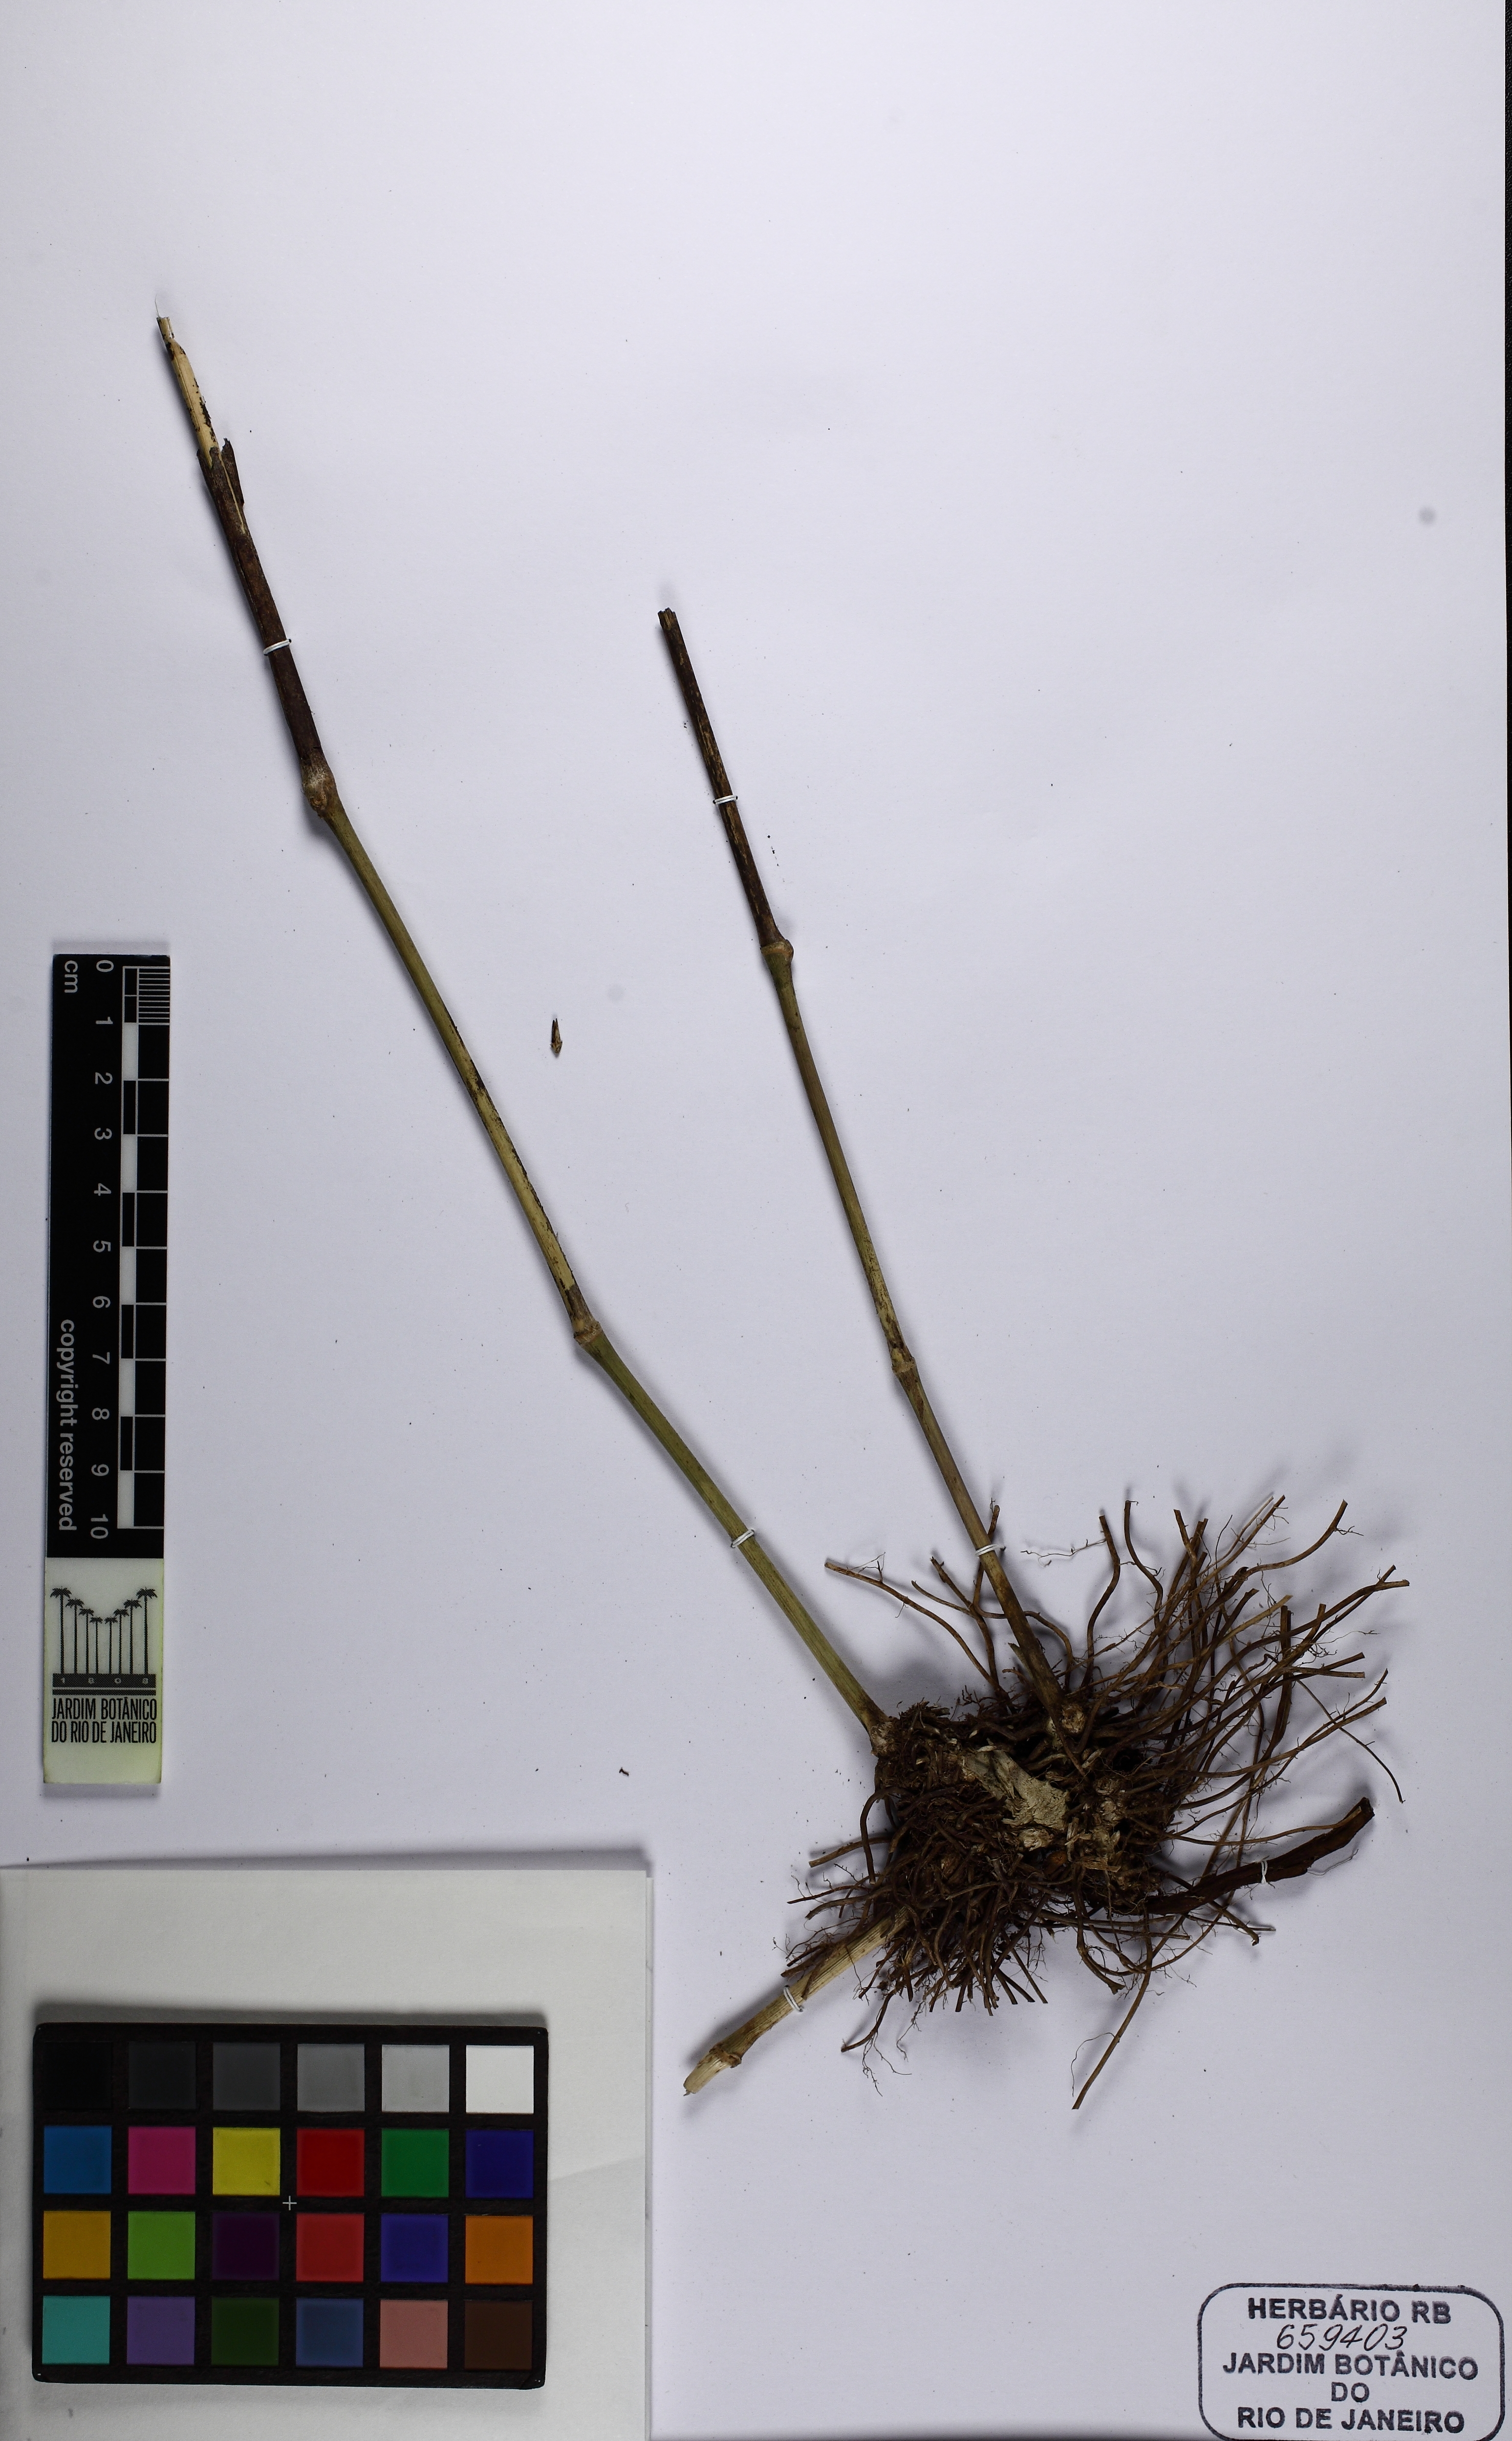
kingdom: Plantae
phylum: Tracheophyta
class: Liliopsida
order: Poales
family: Poaceae
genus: Chusquea
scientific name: Chusquea oligophylla
